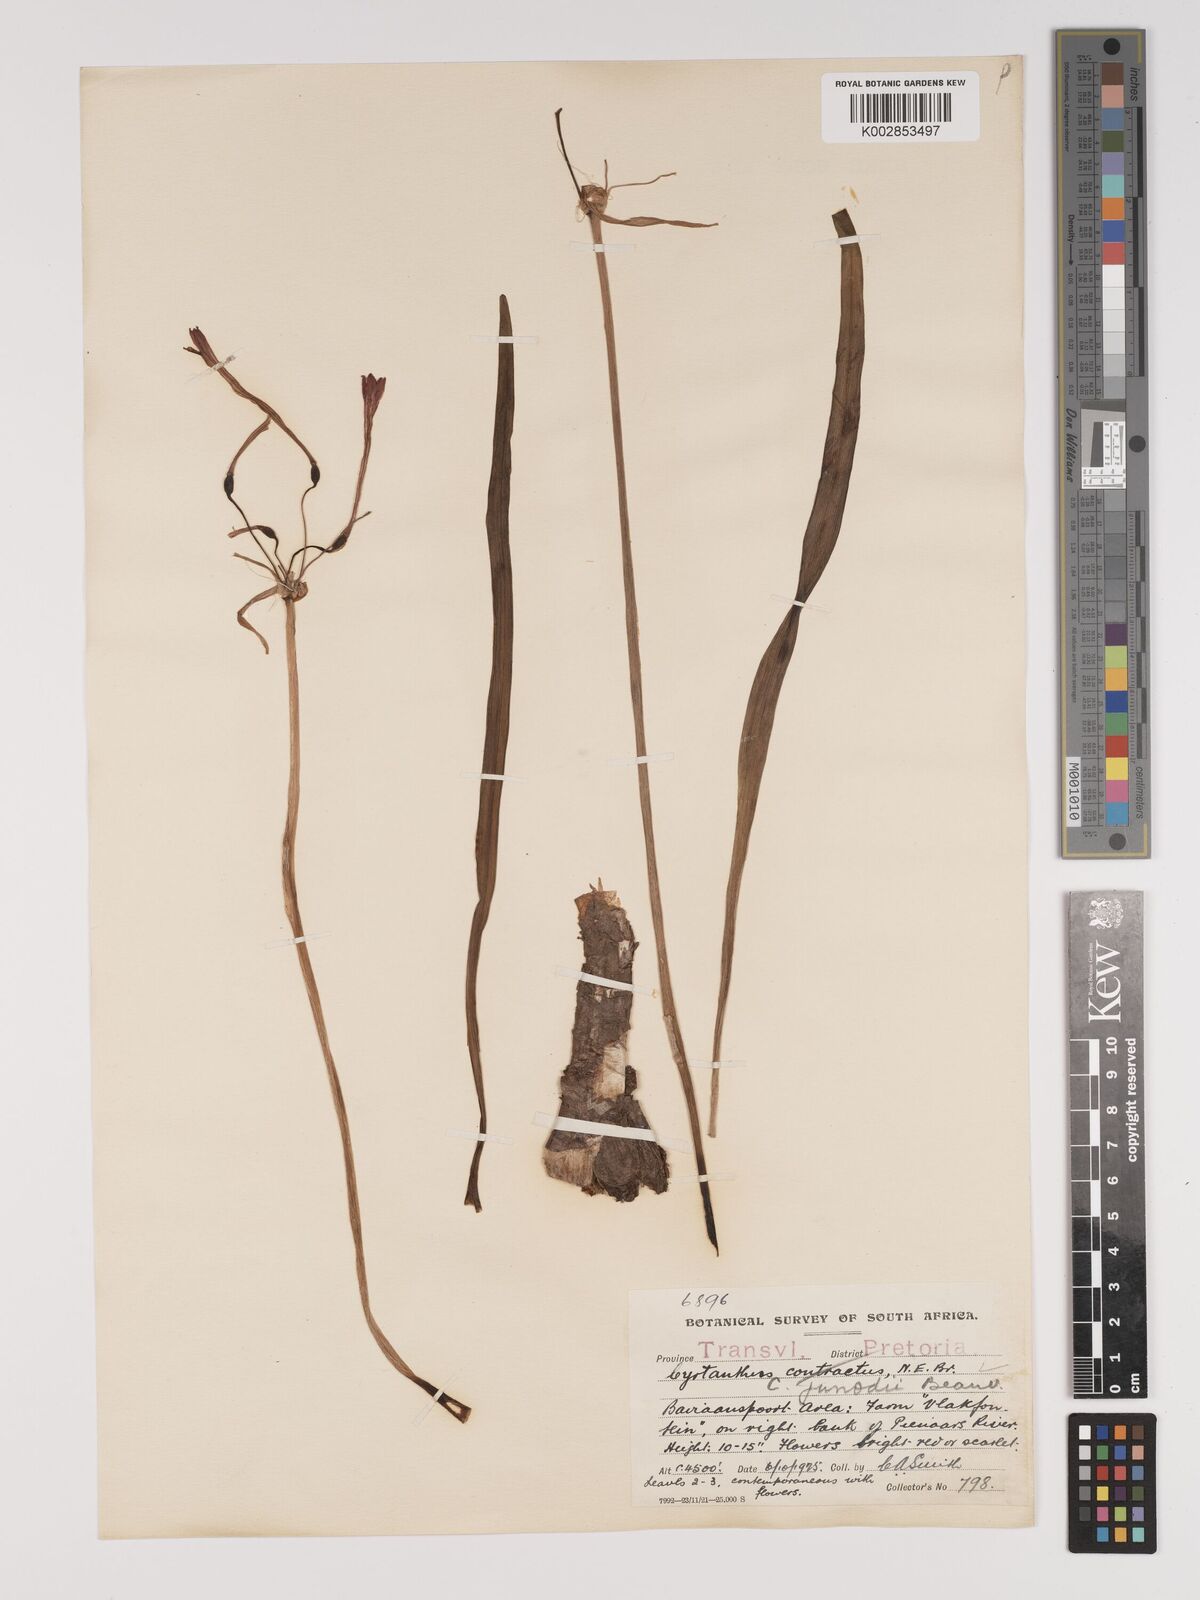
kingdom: Plantae
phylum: Tracheophyta
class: Liliopsida
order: Asparagales
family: Amaryllidaceae
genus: Cyrtanthus
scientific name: Cyrtanthus
